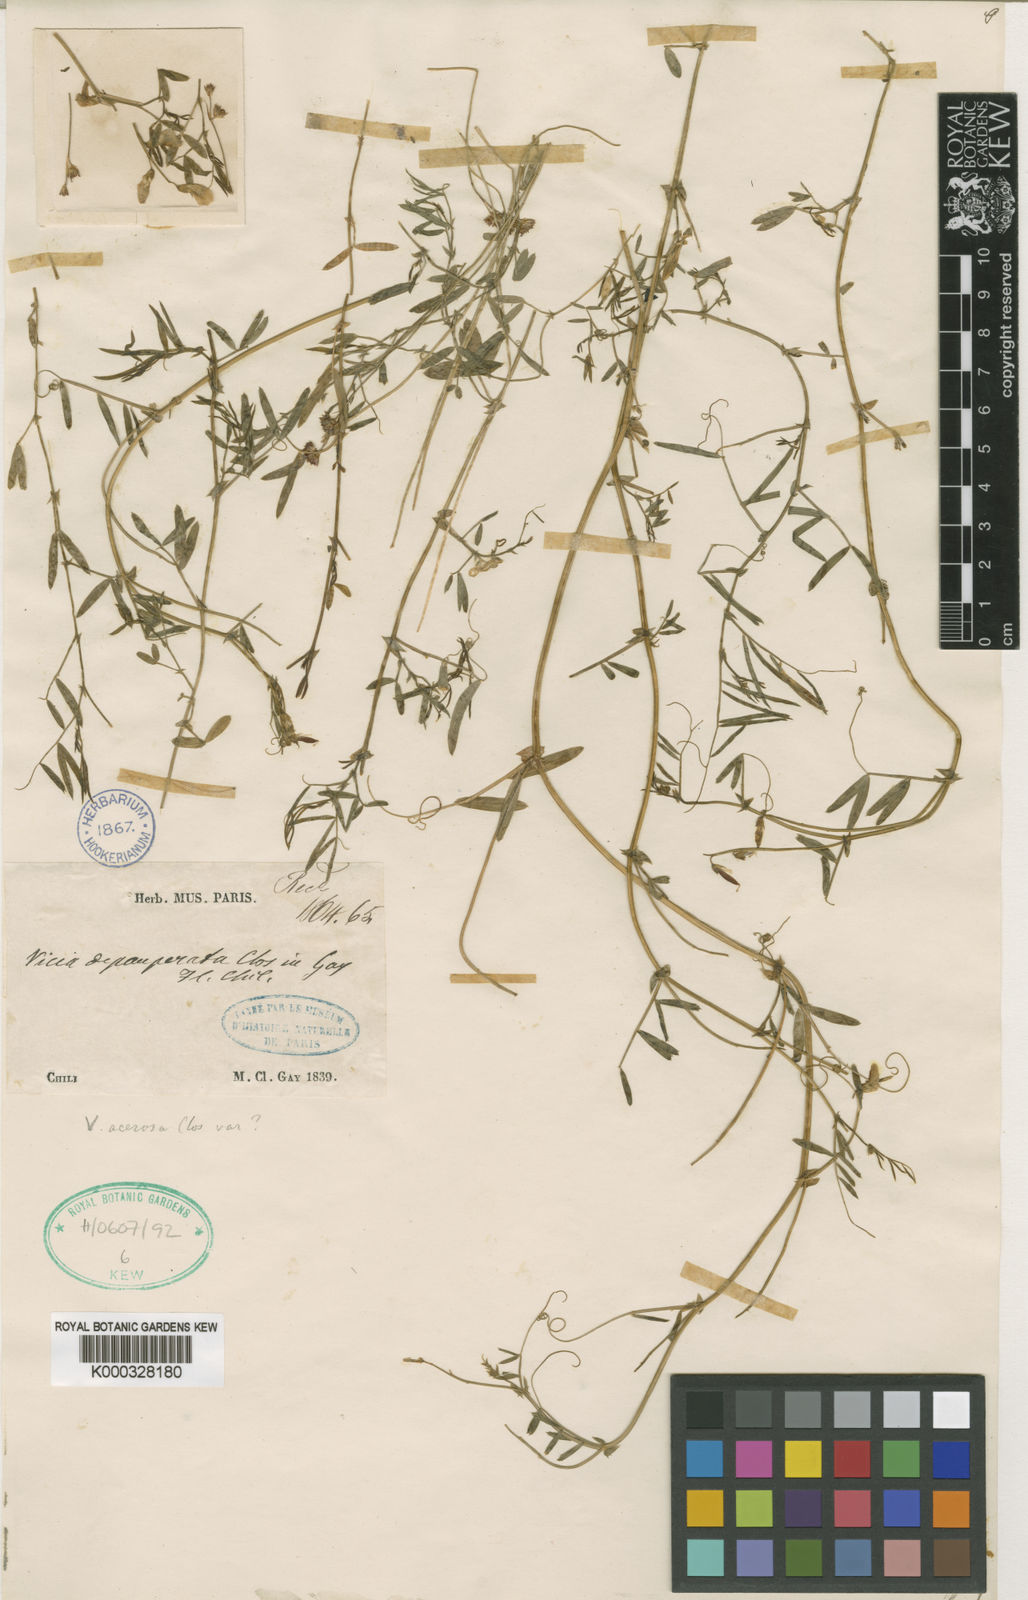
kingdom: Plantae
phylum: Tracheophyta
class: Magnoliopsida
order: Fabales
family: Fabaceae
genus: Vicia
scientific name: Vicia magellanica
